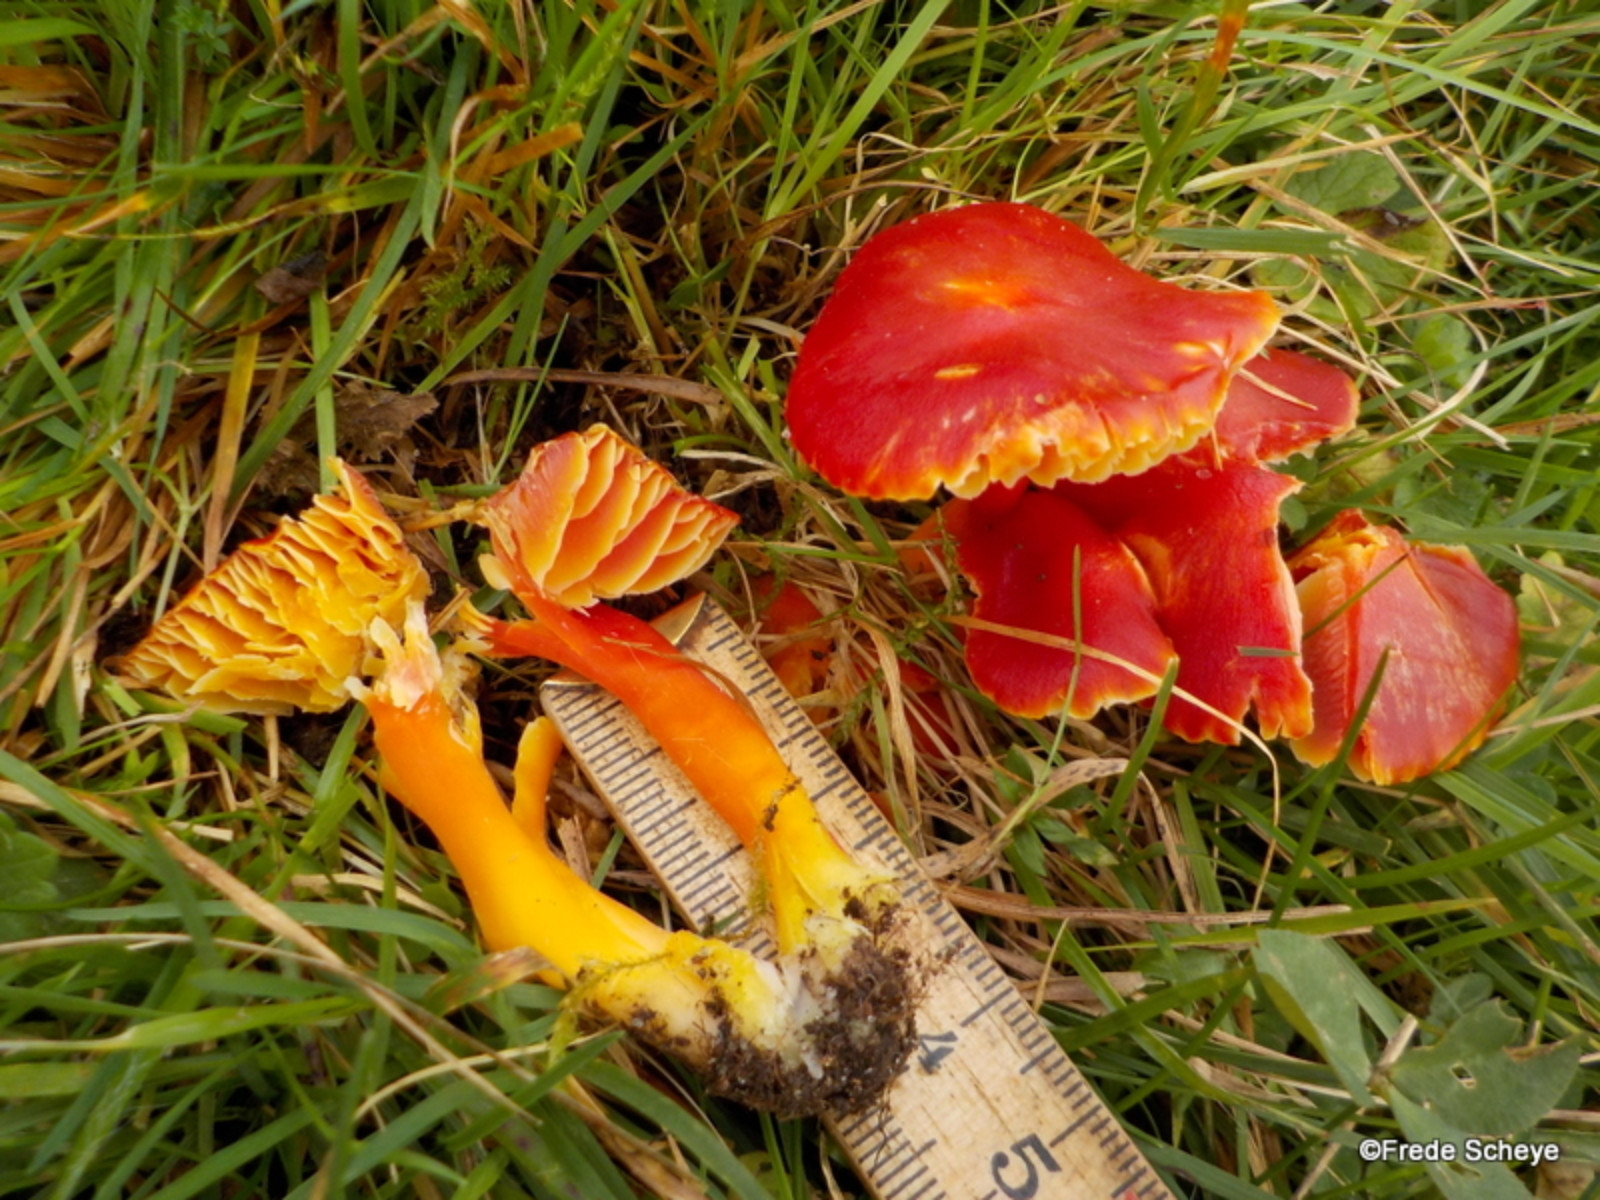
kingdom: Fungi
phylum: Basidiomycota
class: Agaricomycetes
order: Agaricales
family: Hygrophoraceae
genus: Hygrocybe
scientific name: Hygrocybe coccinea
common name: cinnober-vokshat
